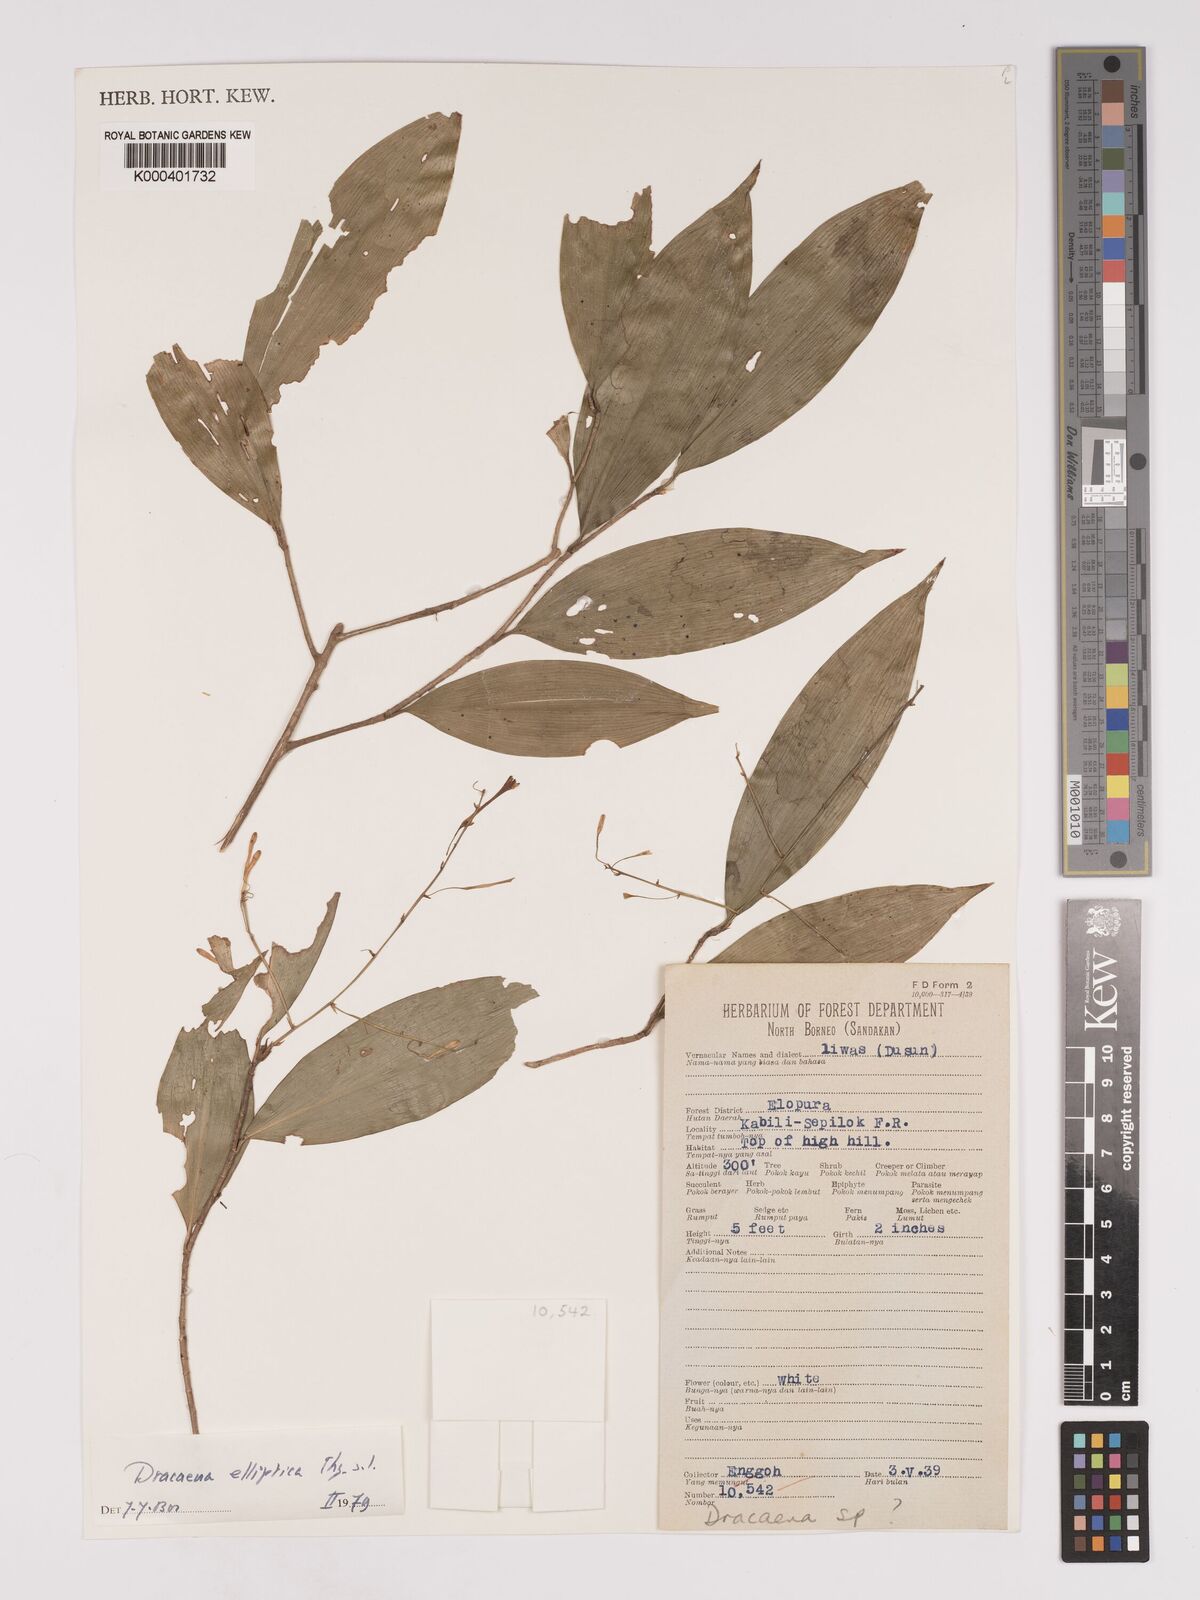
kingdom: Plantae
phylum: Tracheophyta
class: Liliopsida
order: Asparagales
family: Asparagaceae
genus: Dracaena
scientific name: Dracaena elliptica
